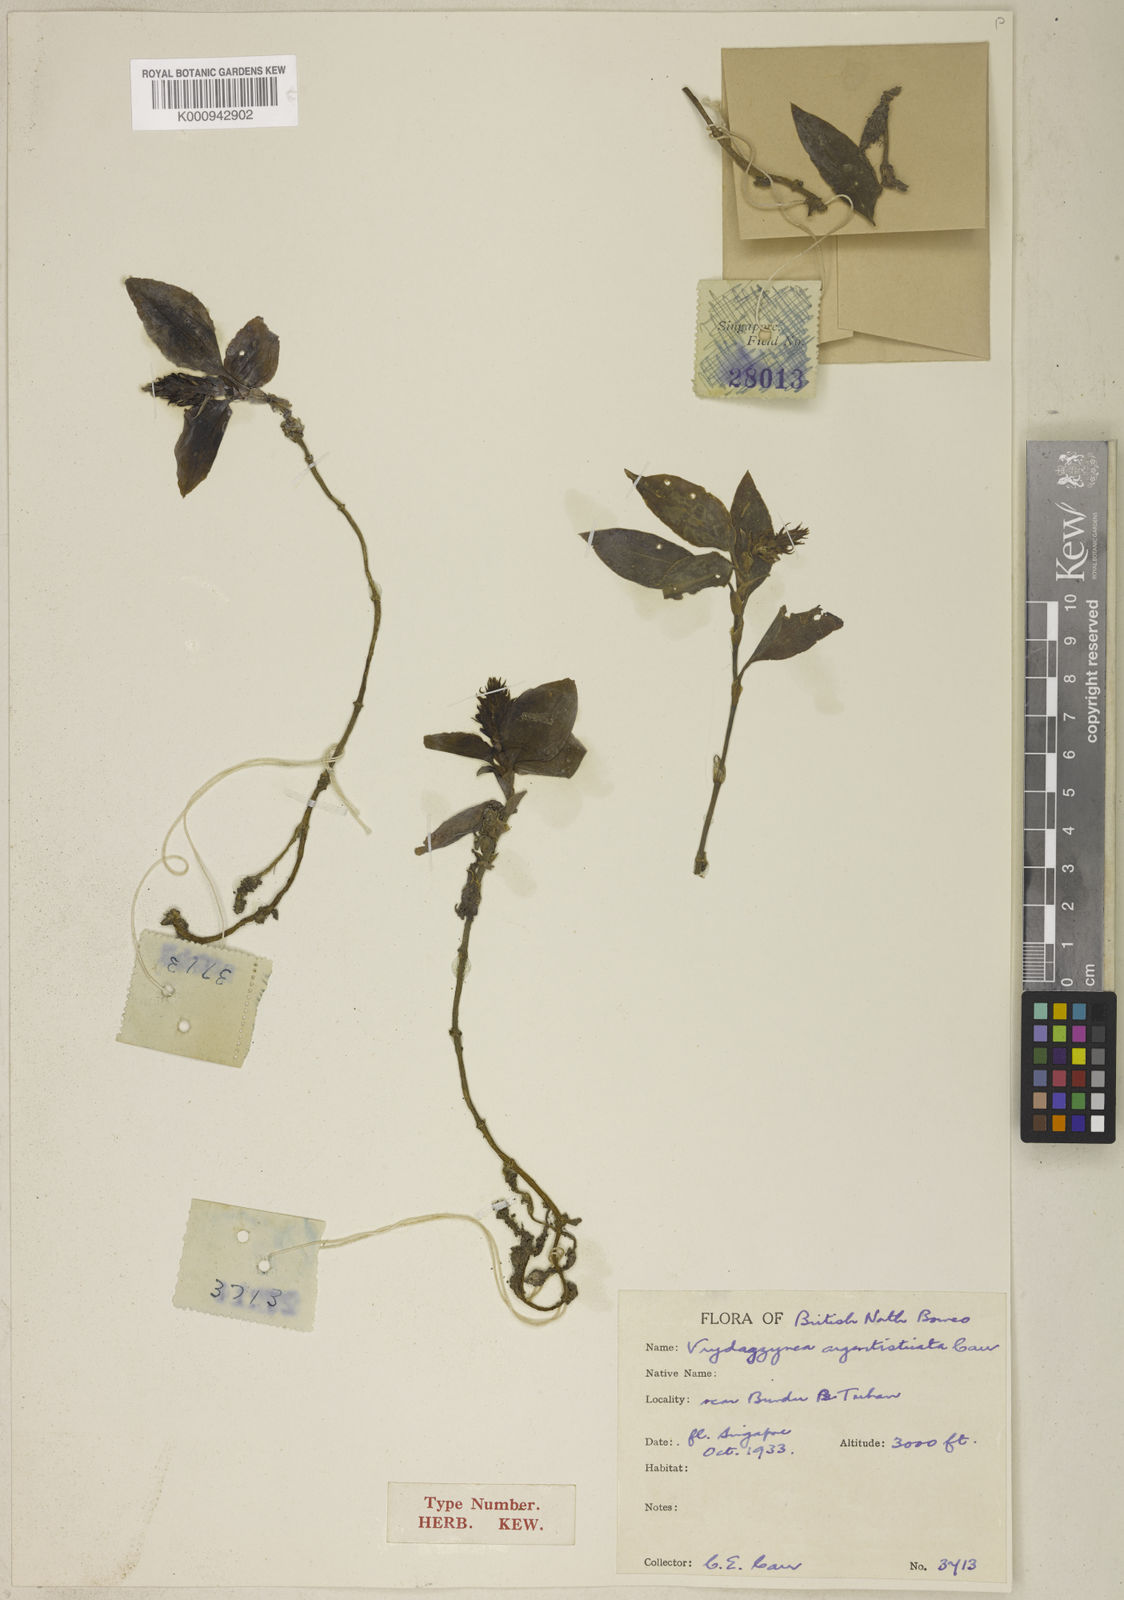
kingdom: Plantae
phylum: Tracheophyta
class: Liliopsida
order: Asparagales
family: Orchidaceae
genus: Vrydagzynea
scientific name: Vrydagzynea argentistriata
